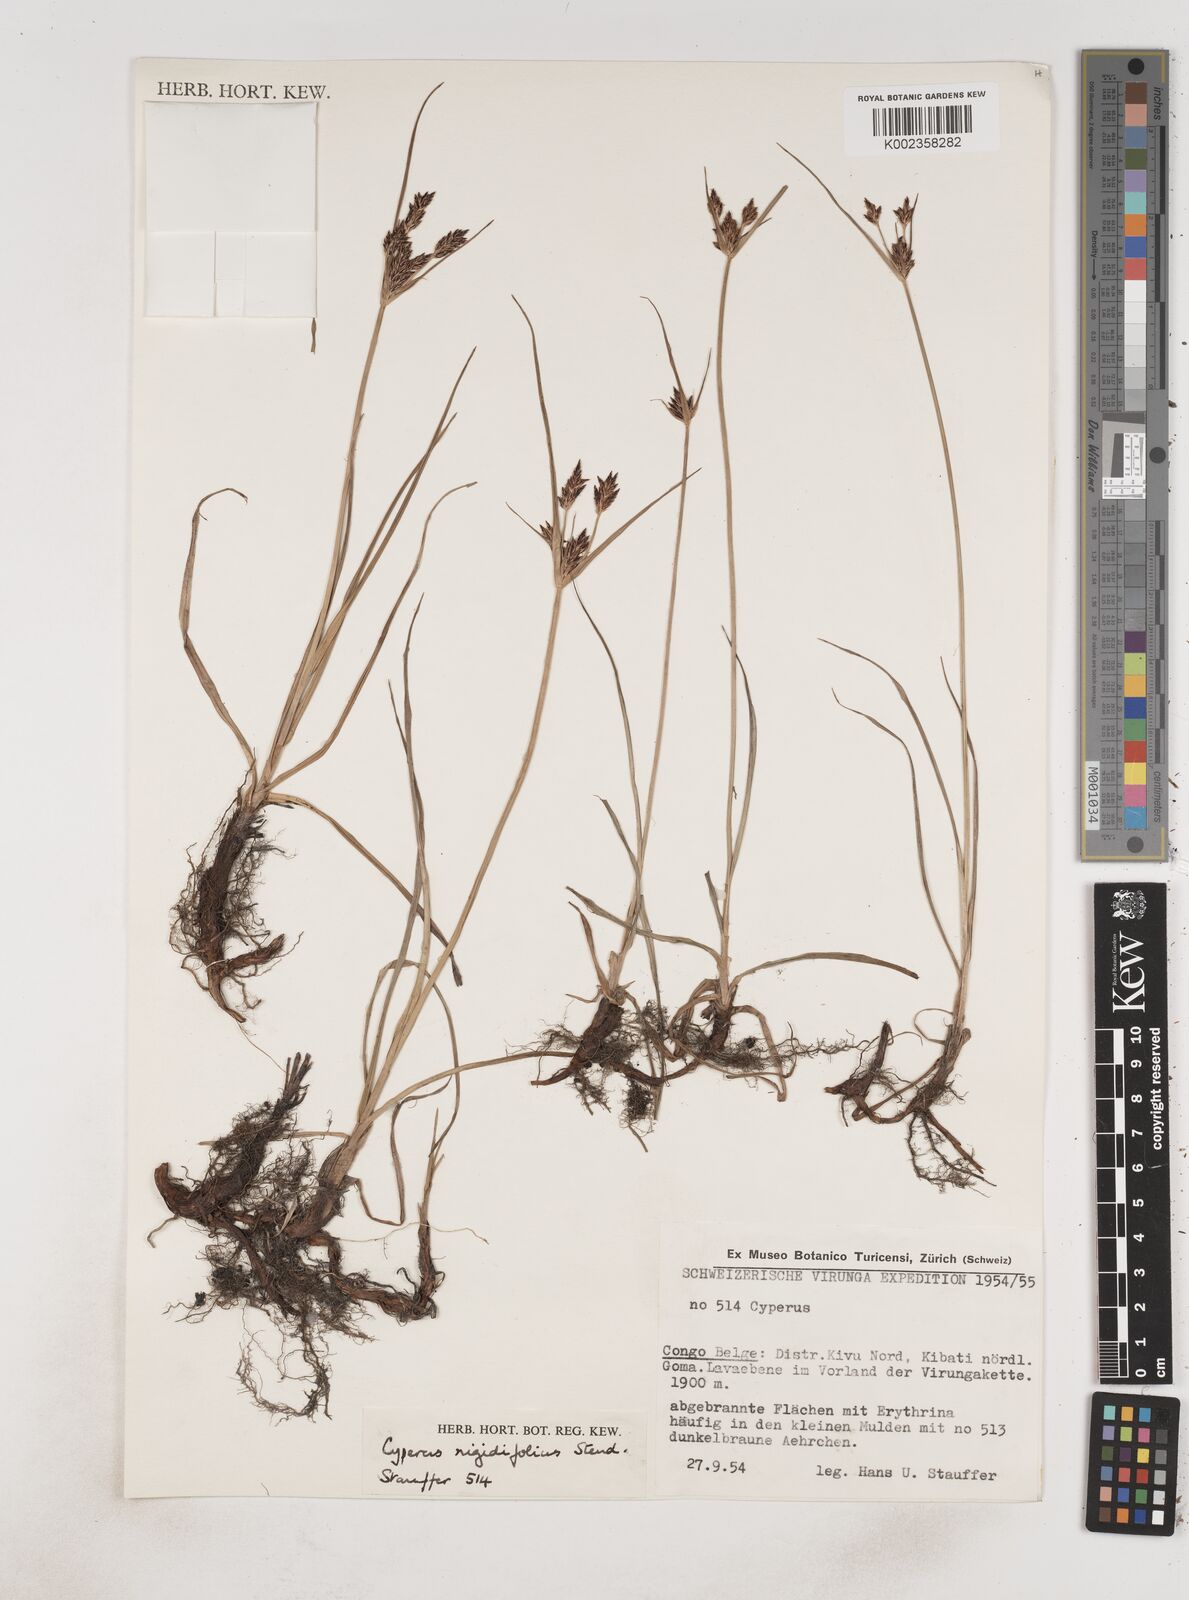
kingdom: Plantae
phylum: Tracheophyta
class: Liliopsida
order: Poales
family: Cyperaceae
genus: Cyperus
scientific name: Cyperus rigidifolius
